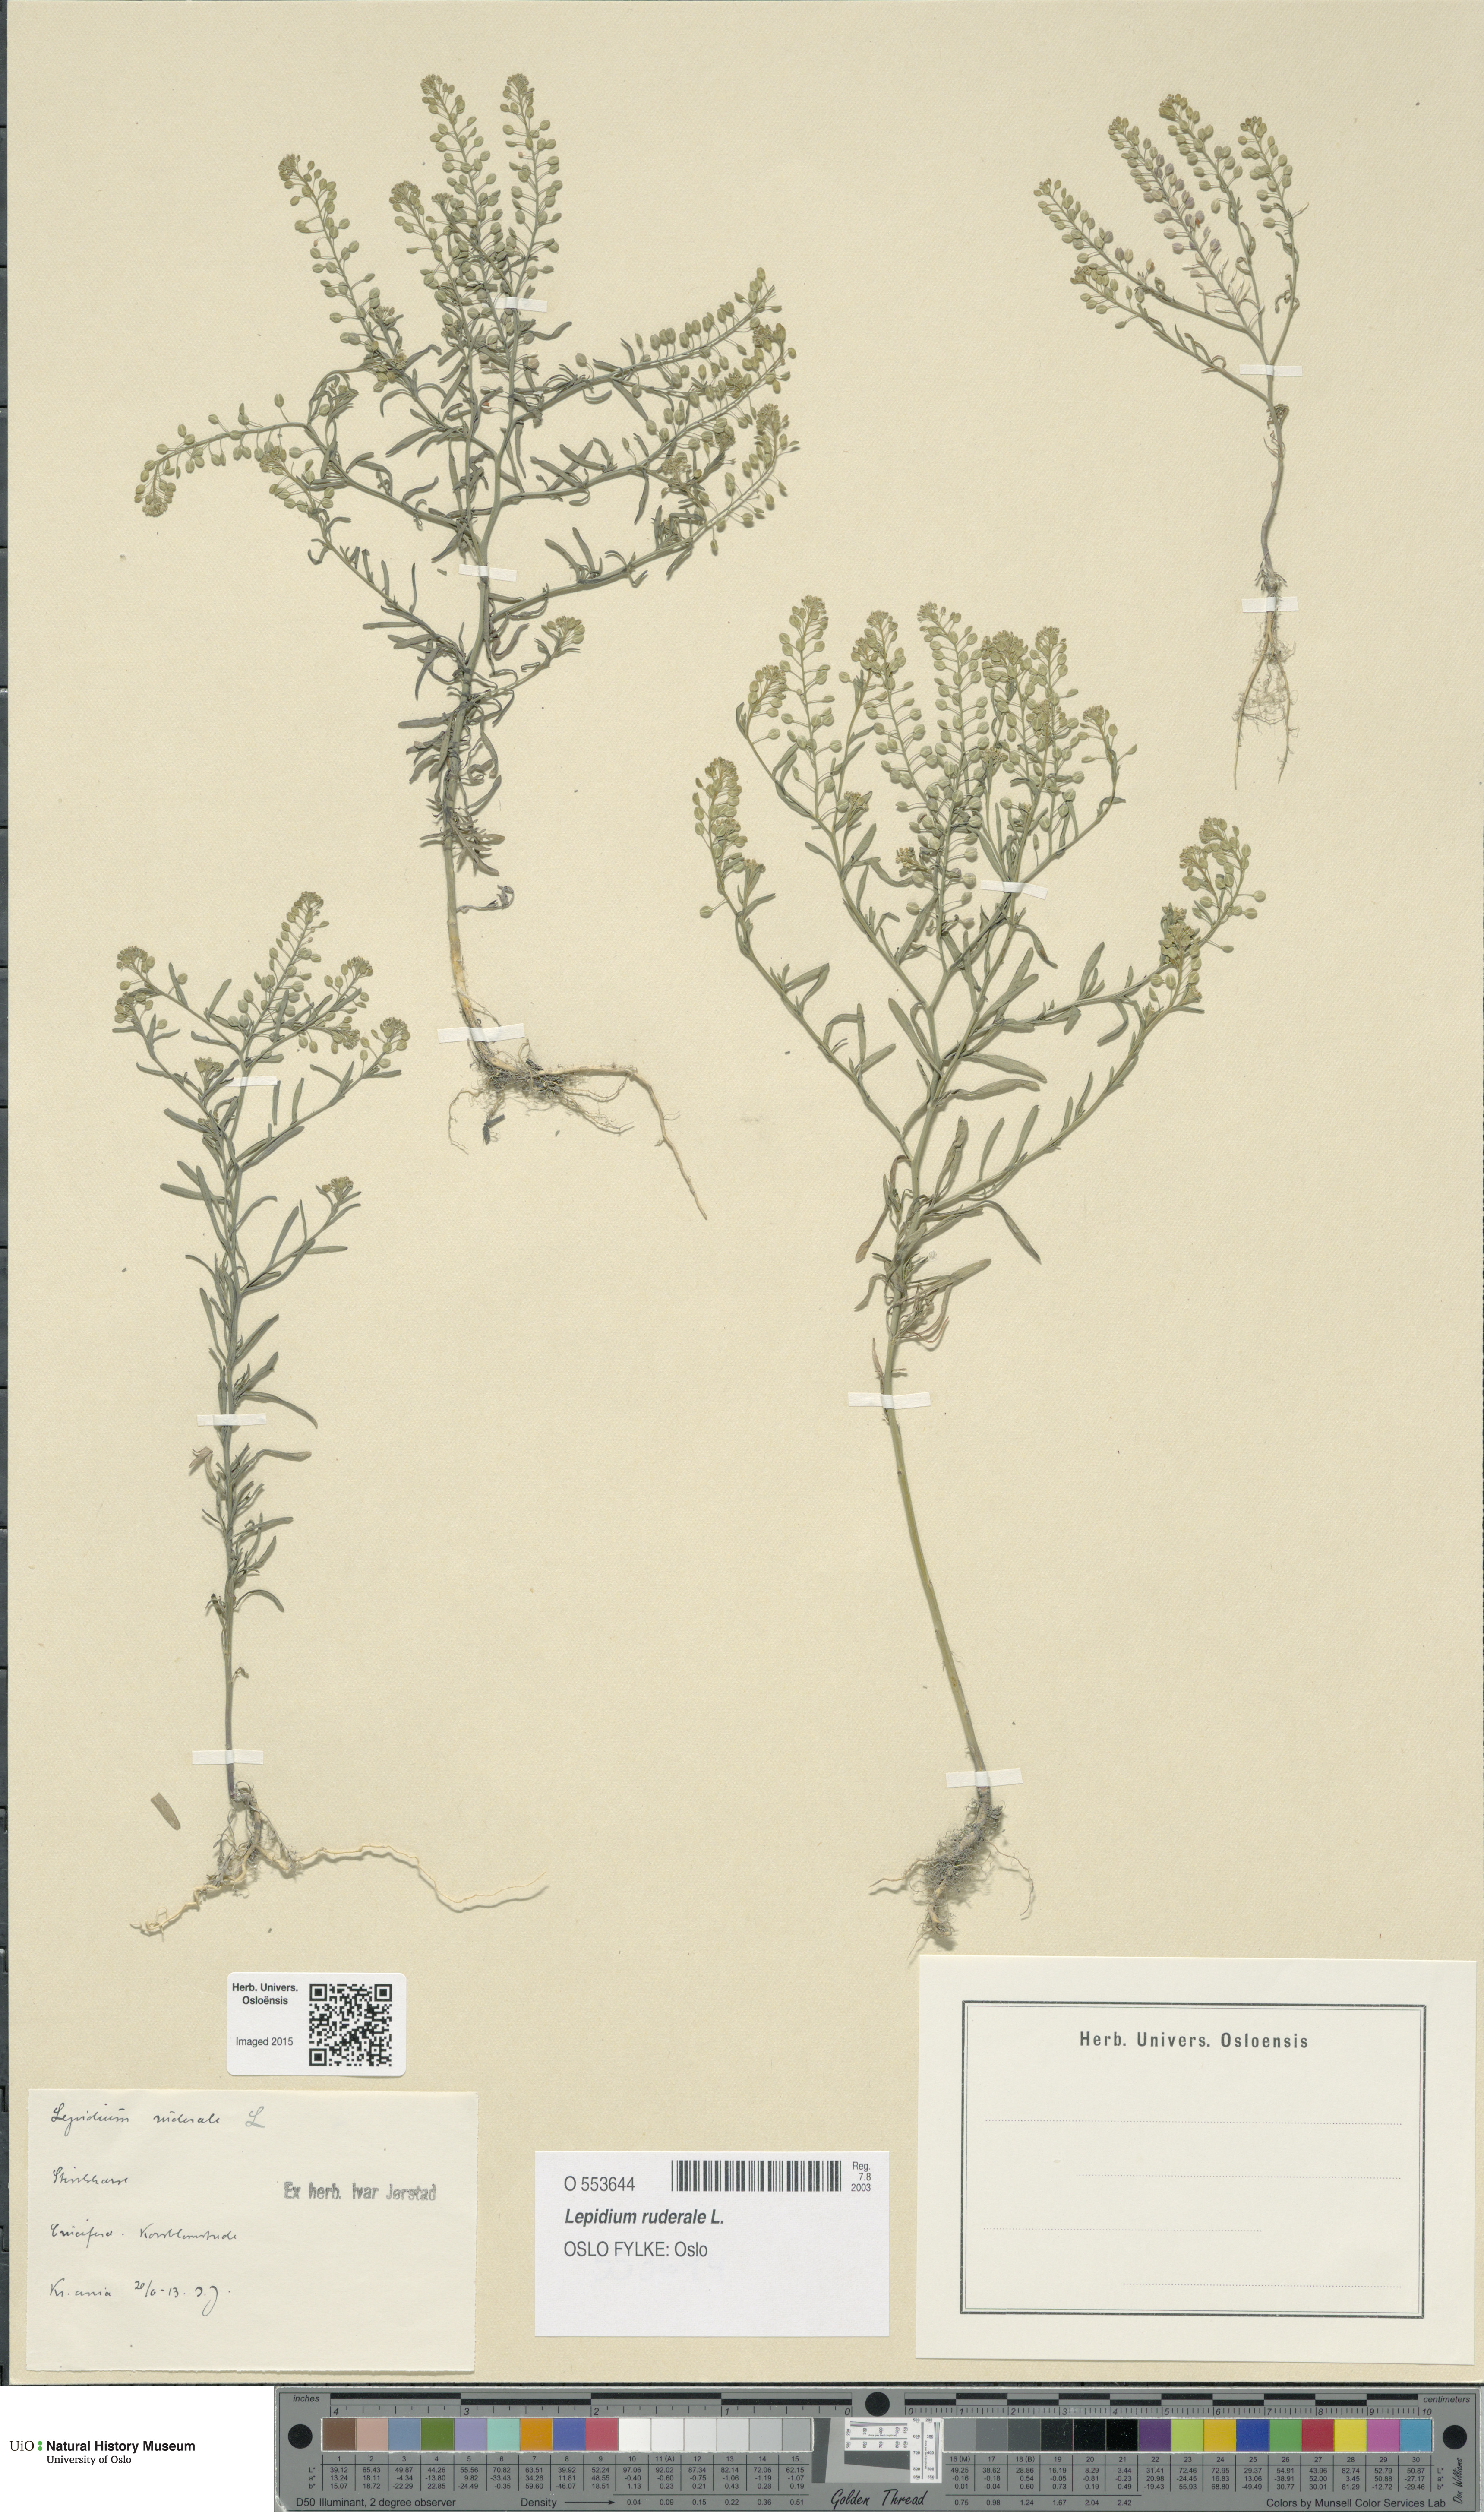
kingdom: Plantae
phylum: Tracheophyta
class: Magnoliopsida
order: Brassicales
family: Brassicaceae
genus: Lepidium
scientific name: Lepidium ruderale
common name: Narrow-leaved pepperwort
